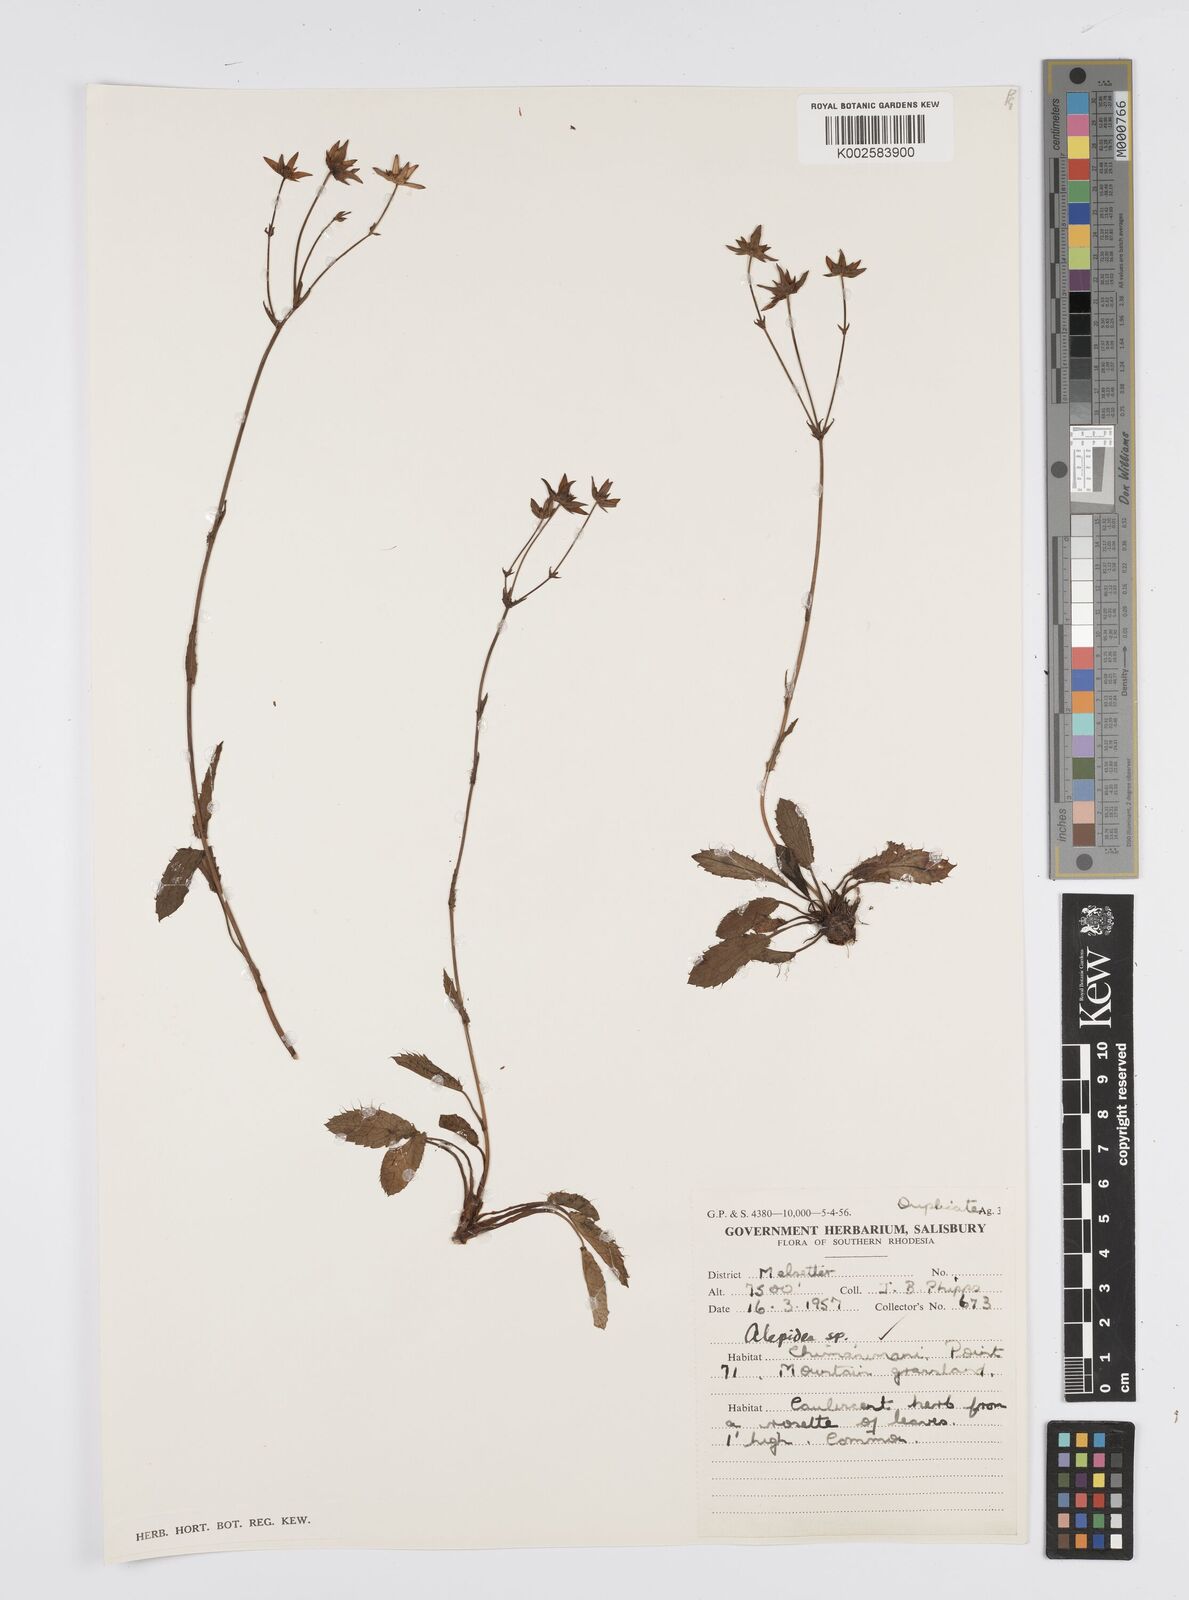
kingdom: Plantae
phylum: Tracheophyta
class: Magnoliopsida
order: Apiales
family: Apiaceae
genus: Alepidea
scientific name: Alepidea
